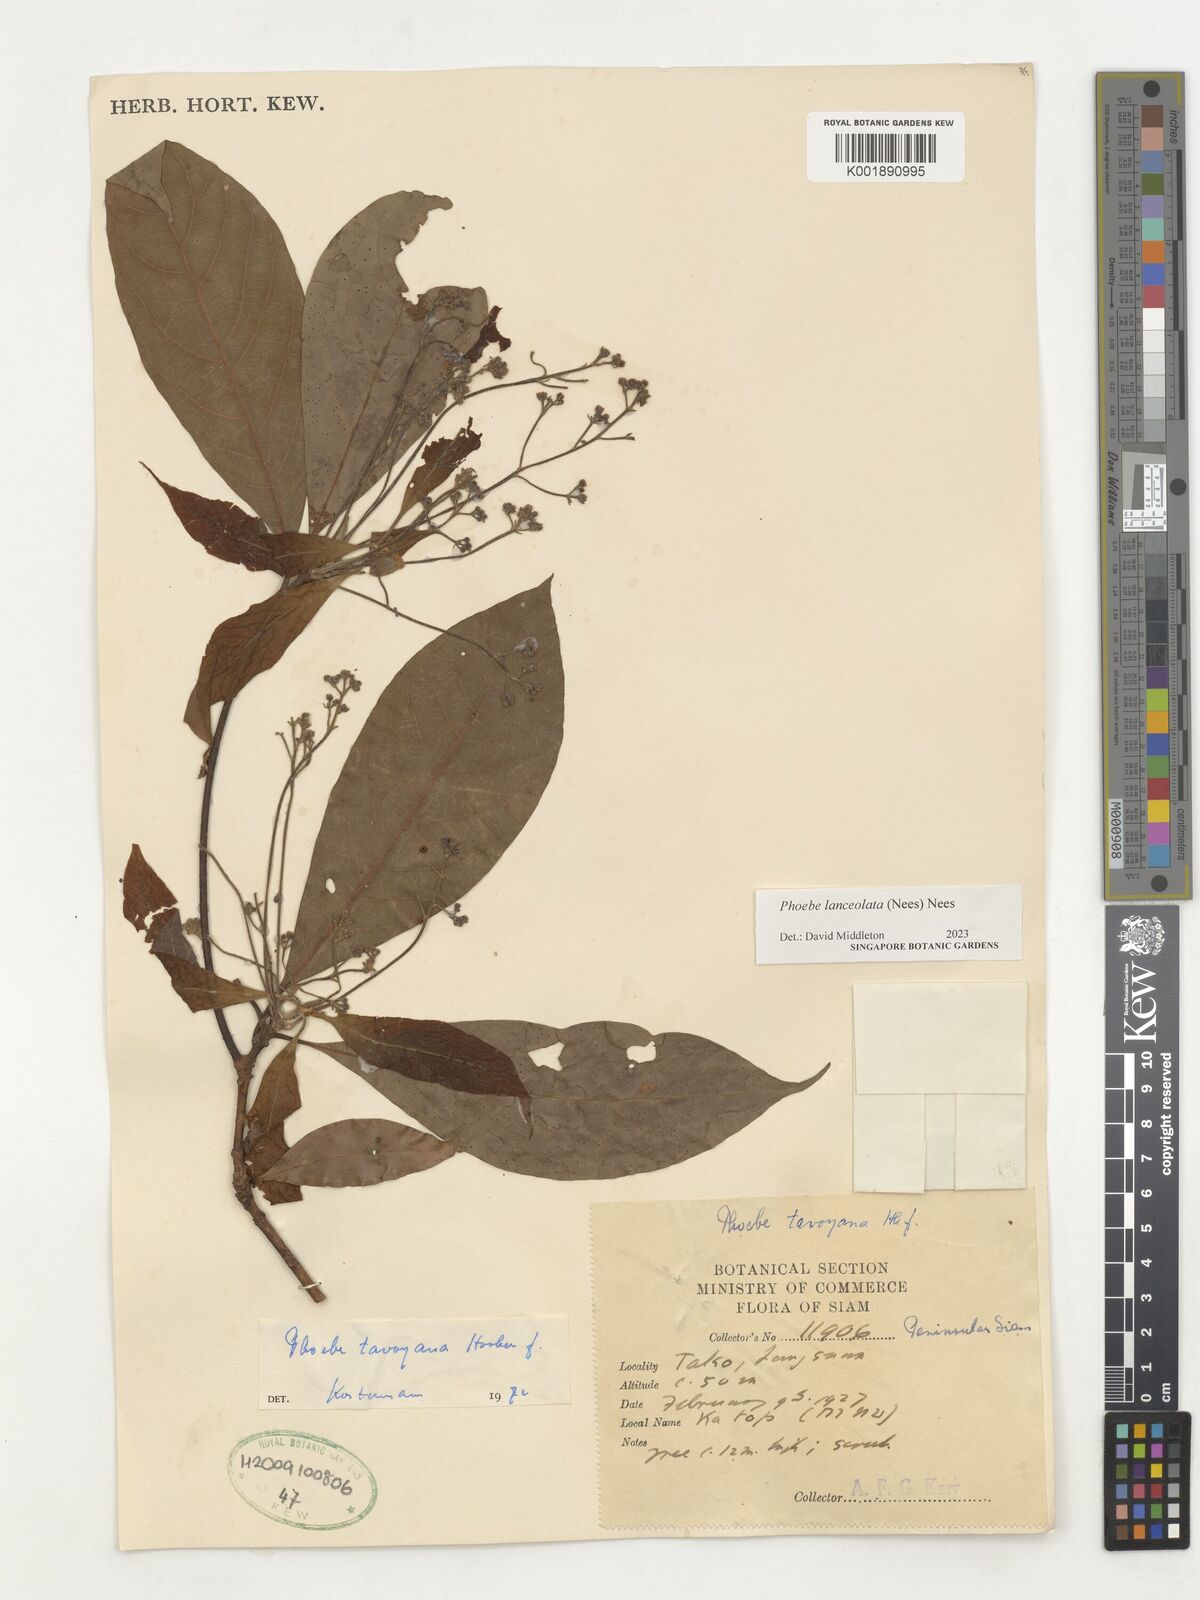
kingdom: Plantae
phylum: Tracheophyta
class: Magnoliopsida
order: Laurales
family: Lauraceae
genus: Phoebe
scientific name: Phoebe lanceolata
